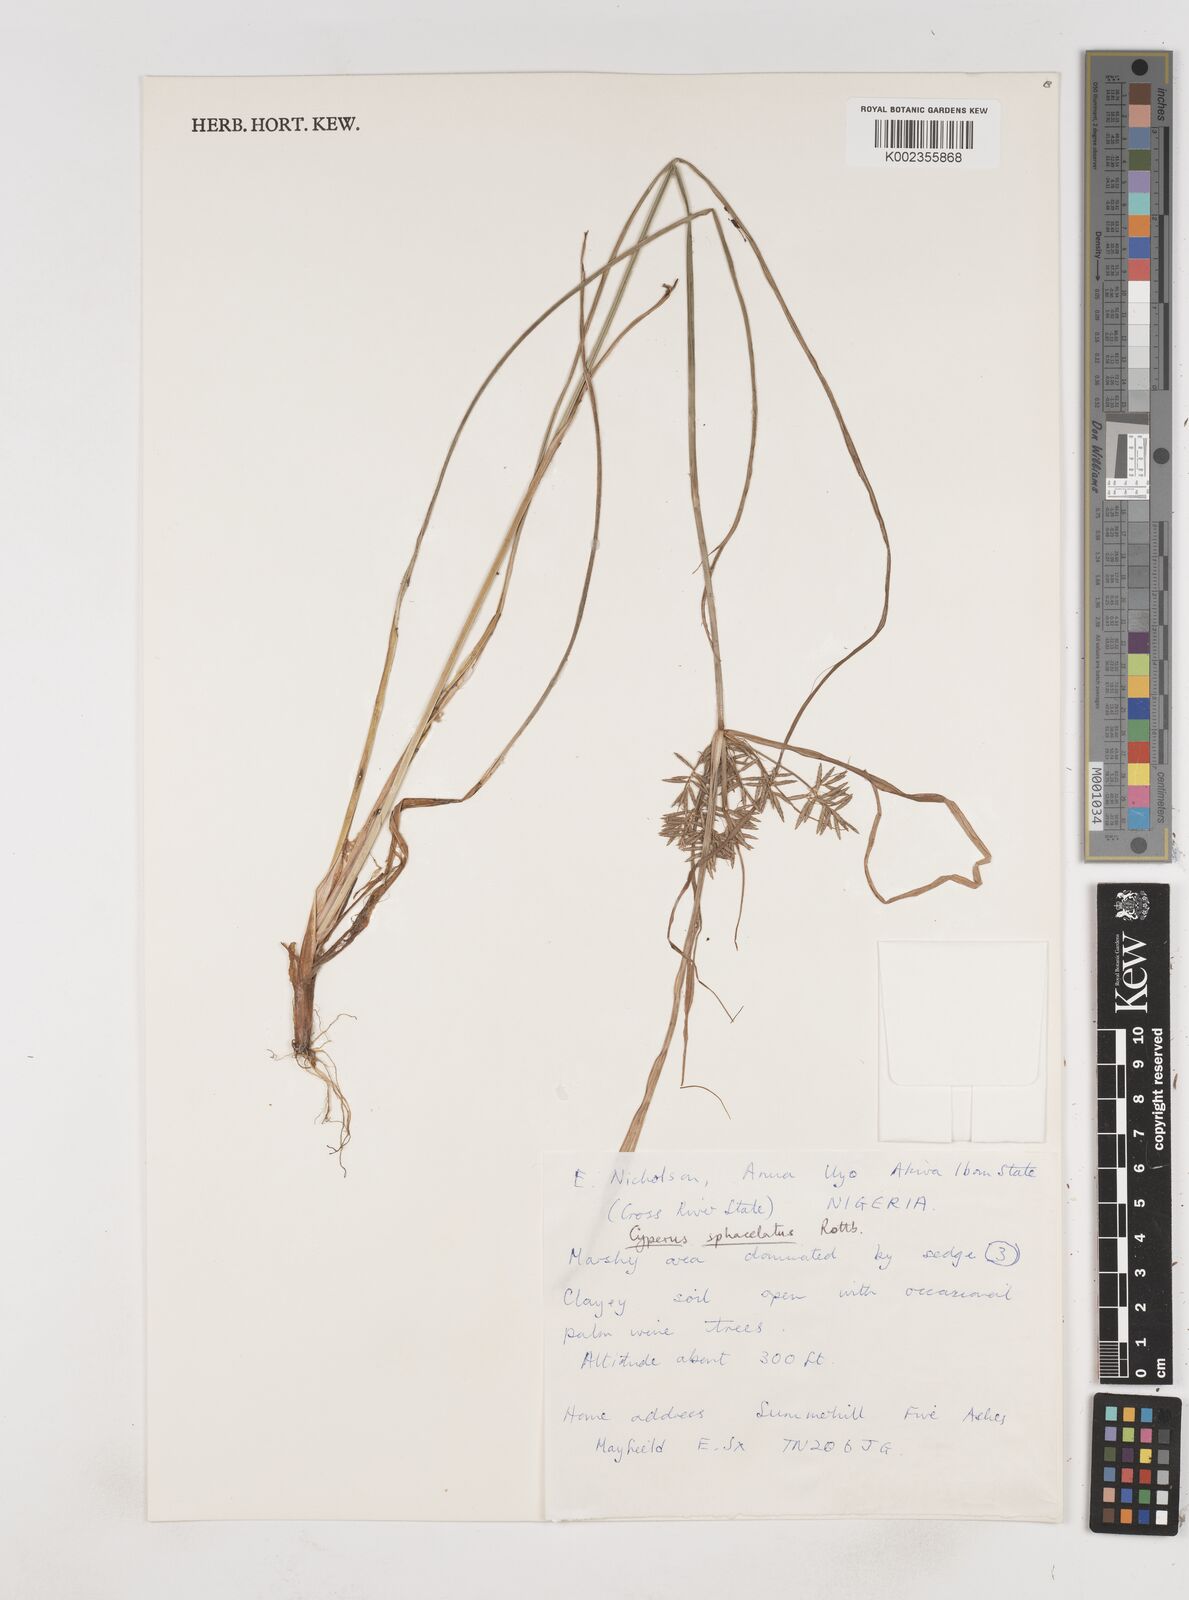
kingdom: Plantae
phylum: Tracheophyta
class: Liliopsida
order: Poales
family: Cyperaceae
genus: Cyperus
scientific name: Cyperus sphacelatus
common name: Roadside flatsedge
